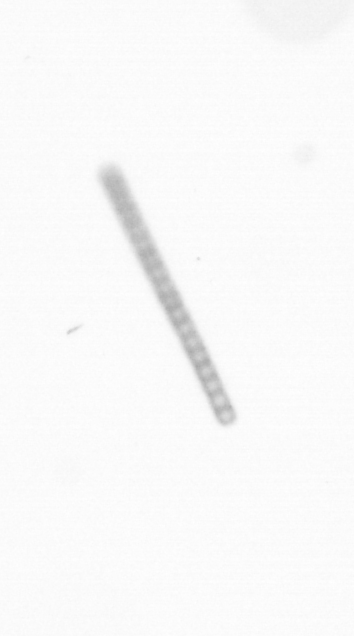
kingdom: Chromista
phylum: Ochrophyta
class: Bacillariophyceae
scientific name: Bacillariophyceae
